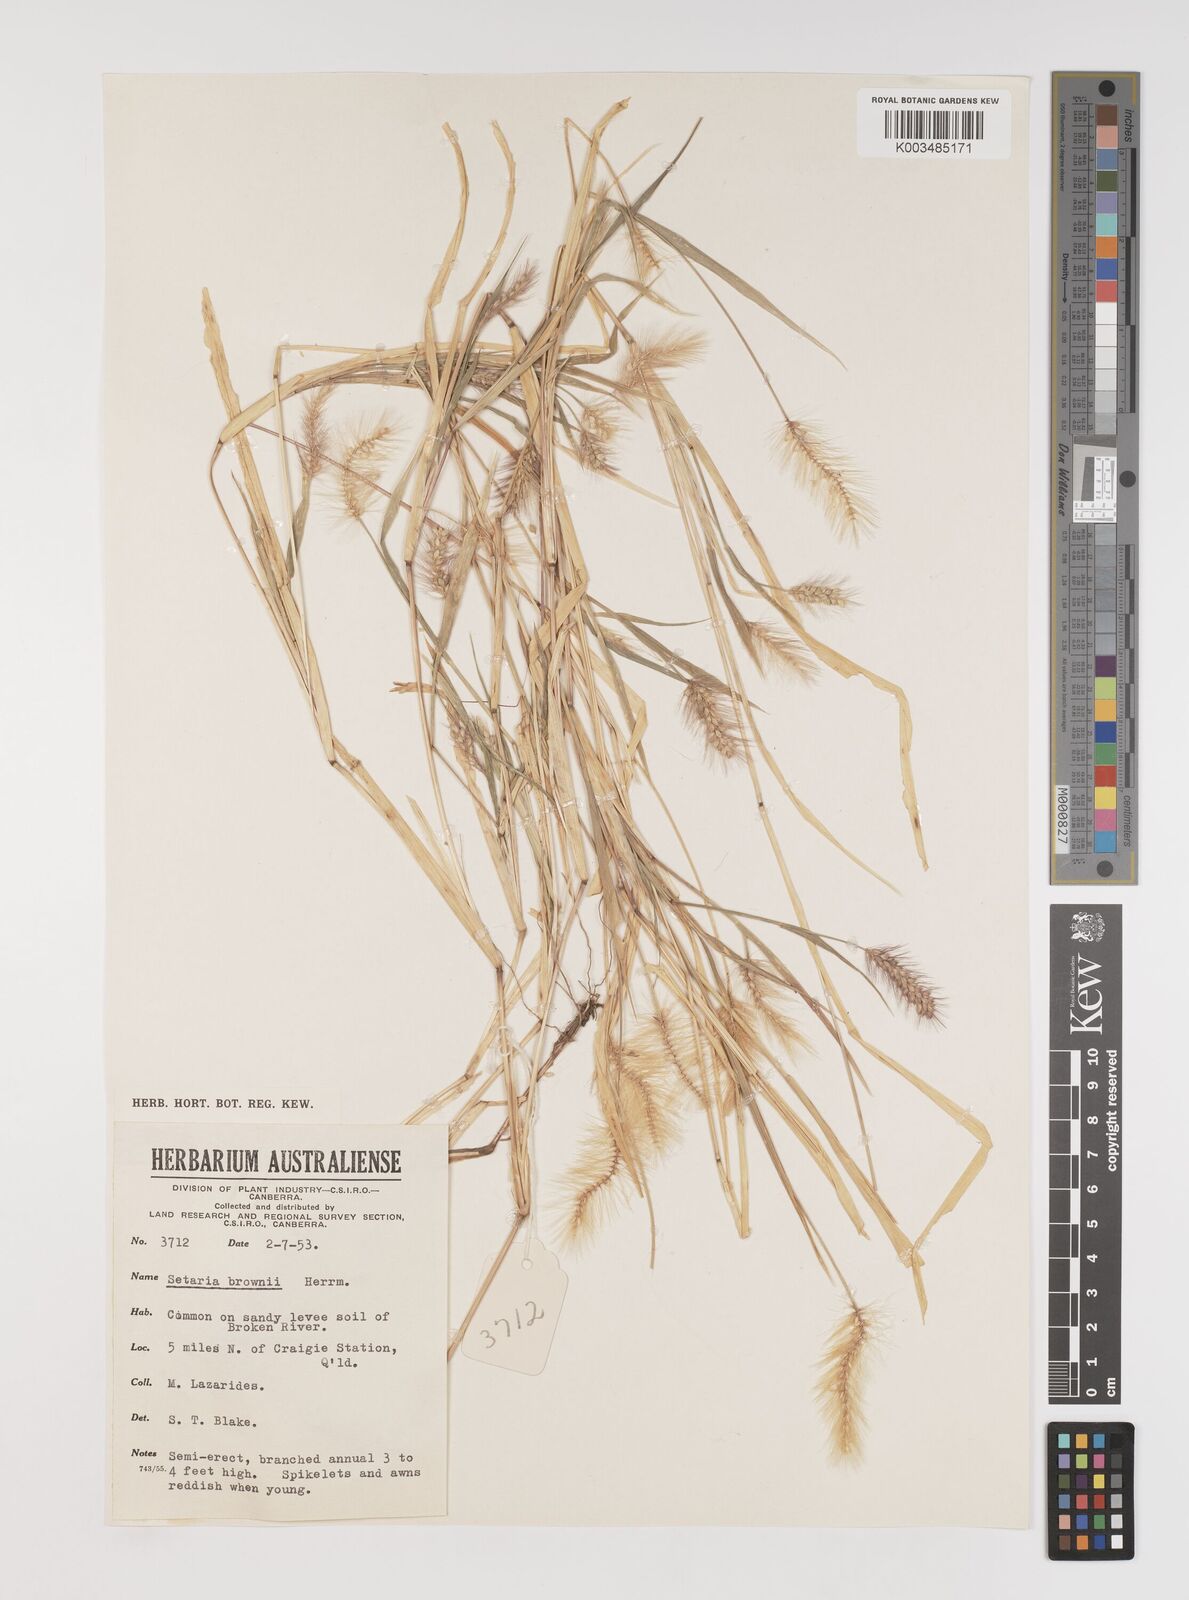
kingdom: Plantae
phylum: Tracheophyta
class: Liliopsida
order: Poales
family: Poaceae
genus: Setaria
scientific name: Setaria apiculata
